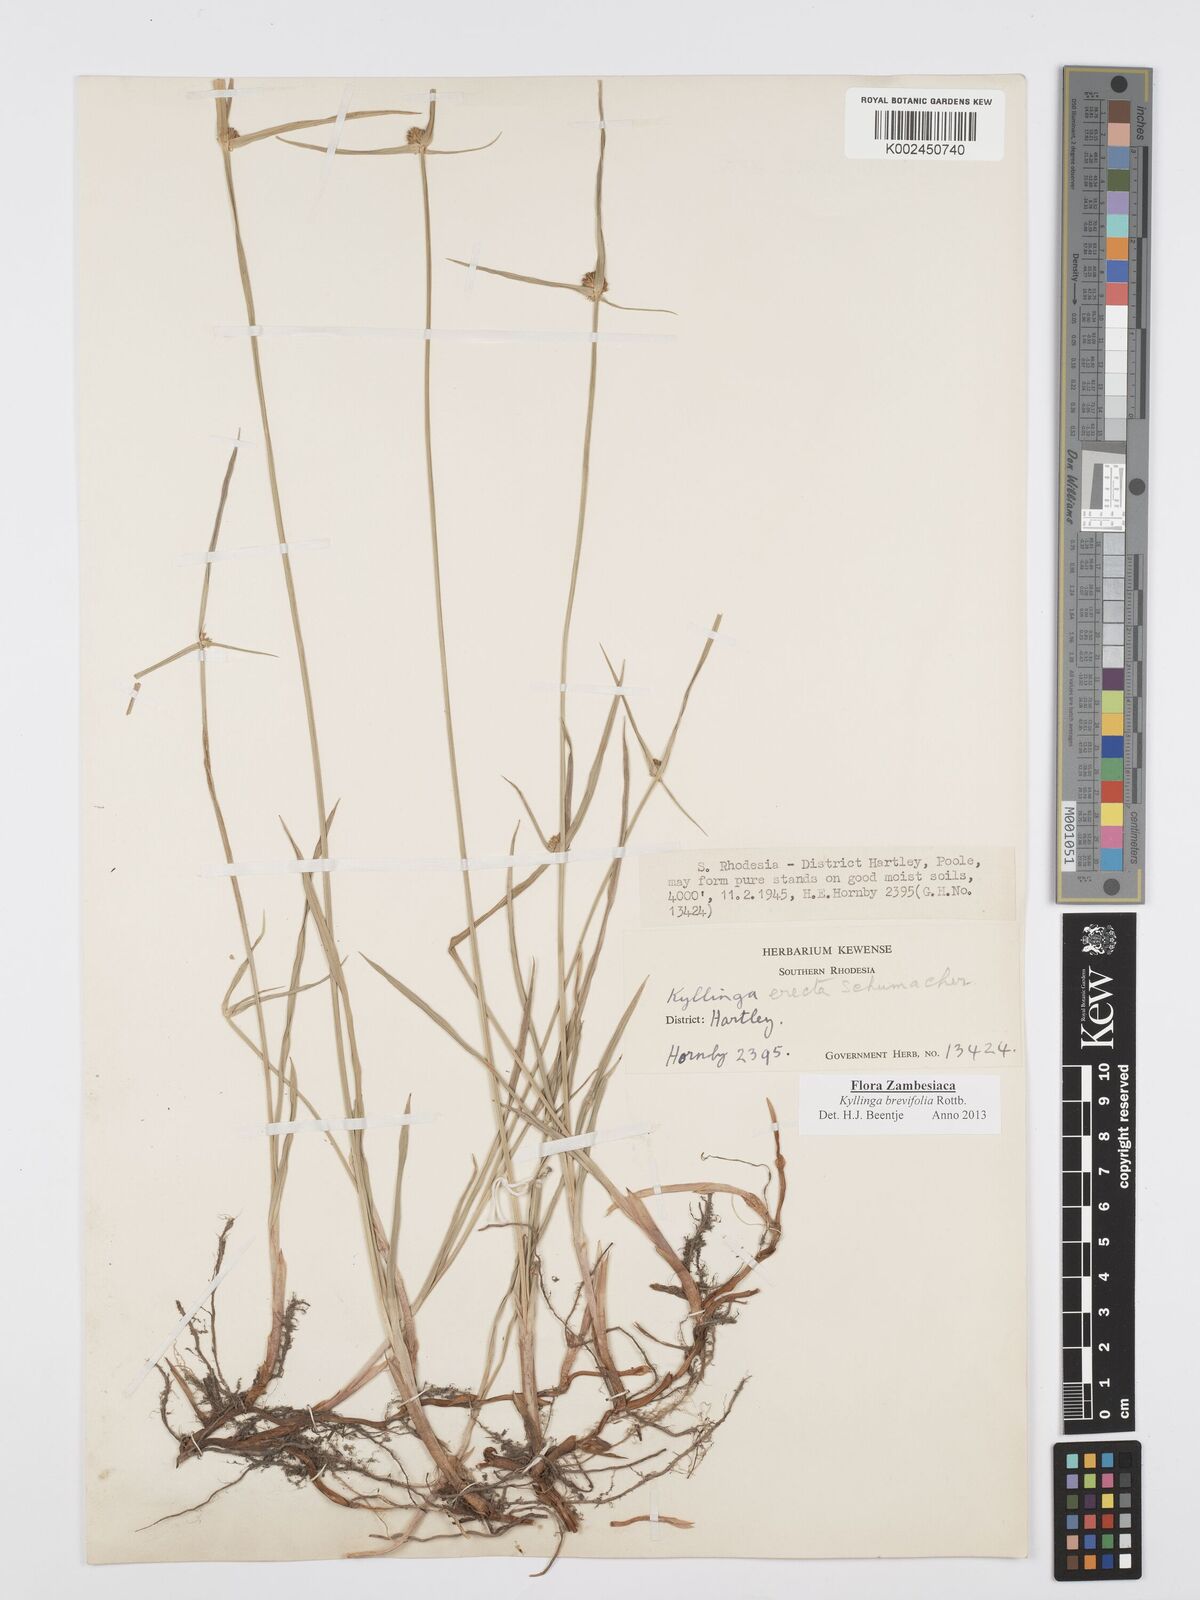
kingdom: Plantae
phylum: Tracheophyta
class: Liliopsida
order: Poales
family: Cyperaceae
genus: Cyperus
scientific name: Cyperus brevifolius
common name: Globe kyllinga
